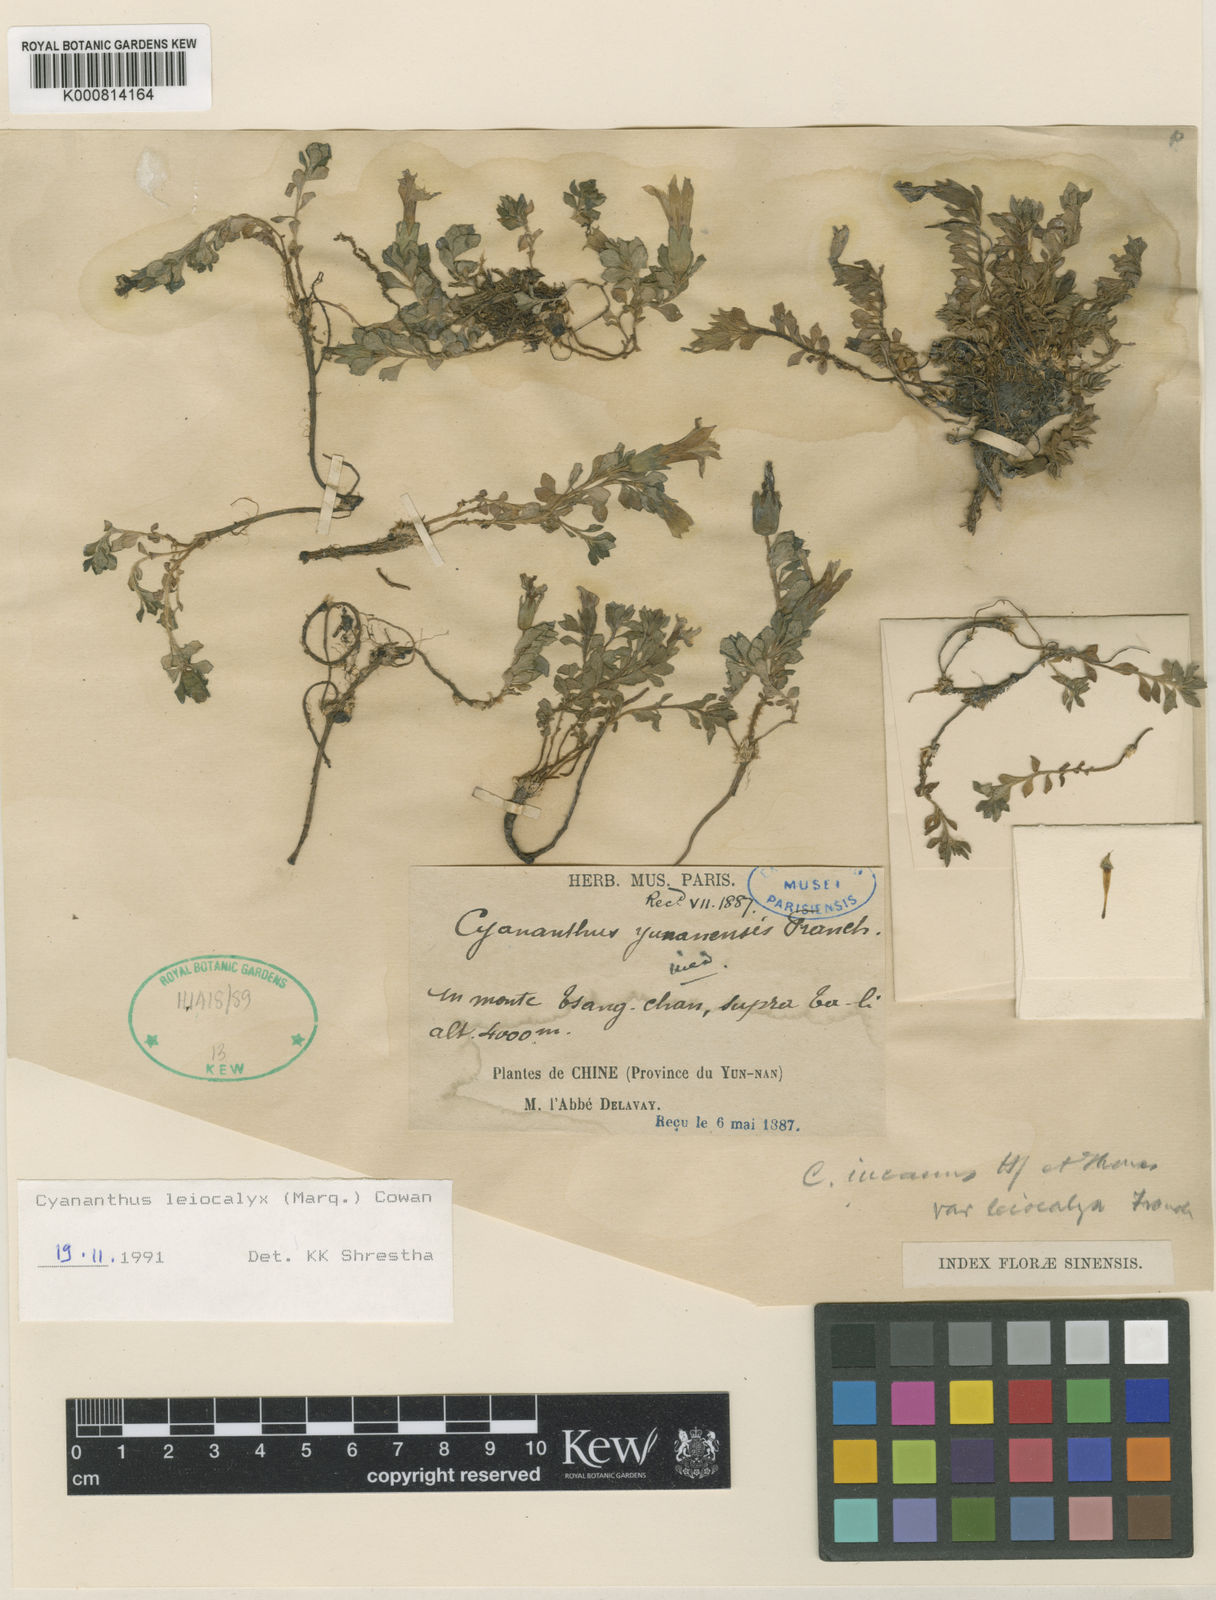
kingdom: Plantae
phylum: Tracheophyta
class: Magnoliopsida
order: Asterales
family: Campanulaceae
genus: Cyananthus
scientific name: Cyananthus macrocalyx
